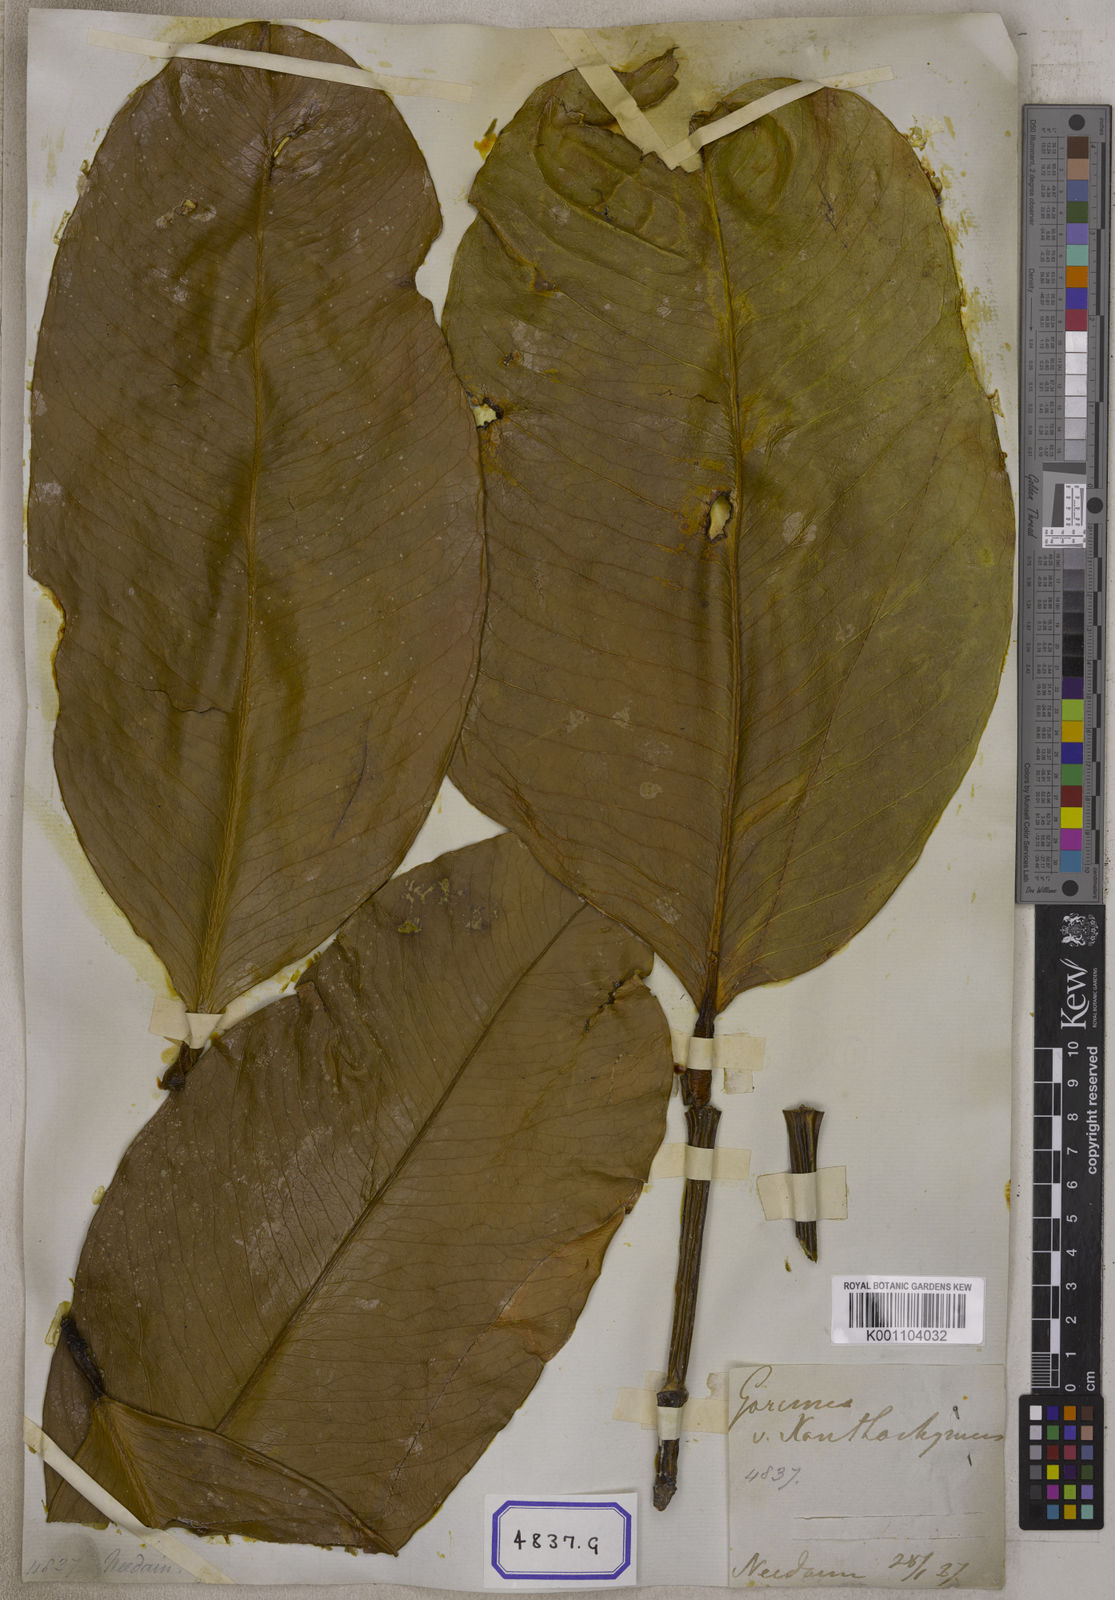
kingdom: Plantae
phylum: Tracheophyta
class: Magnoliopsida
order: Malpighiales
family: Clusiaceae
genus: Garcinia
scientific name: Garcinia xanthochymus
